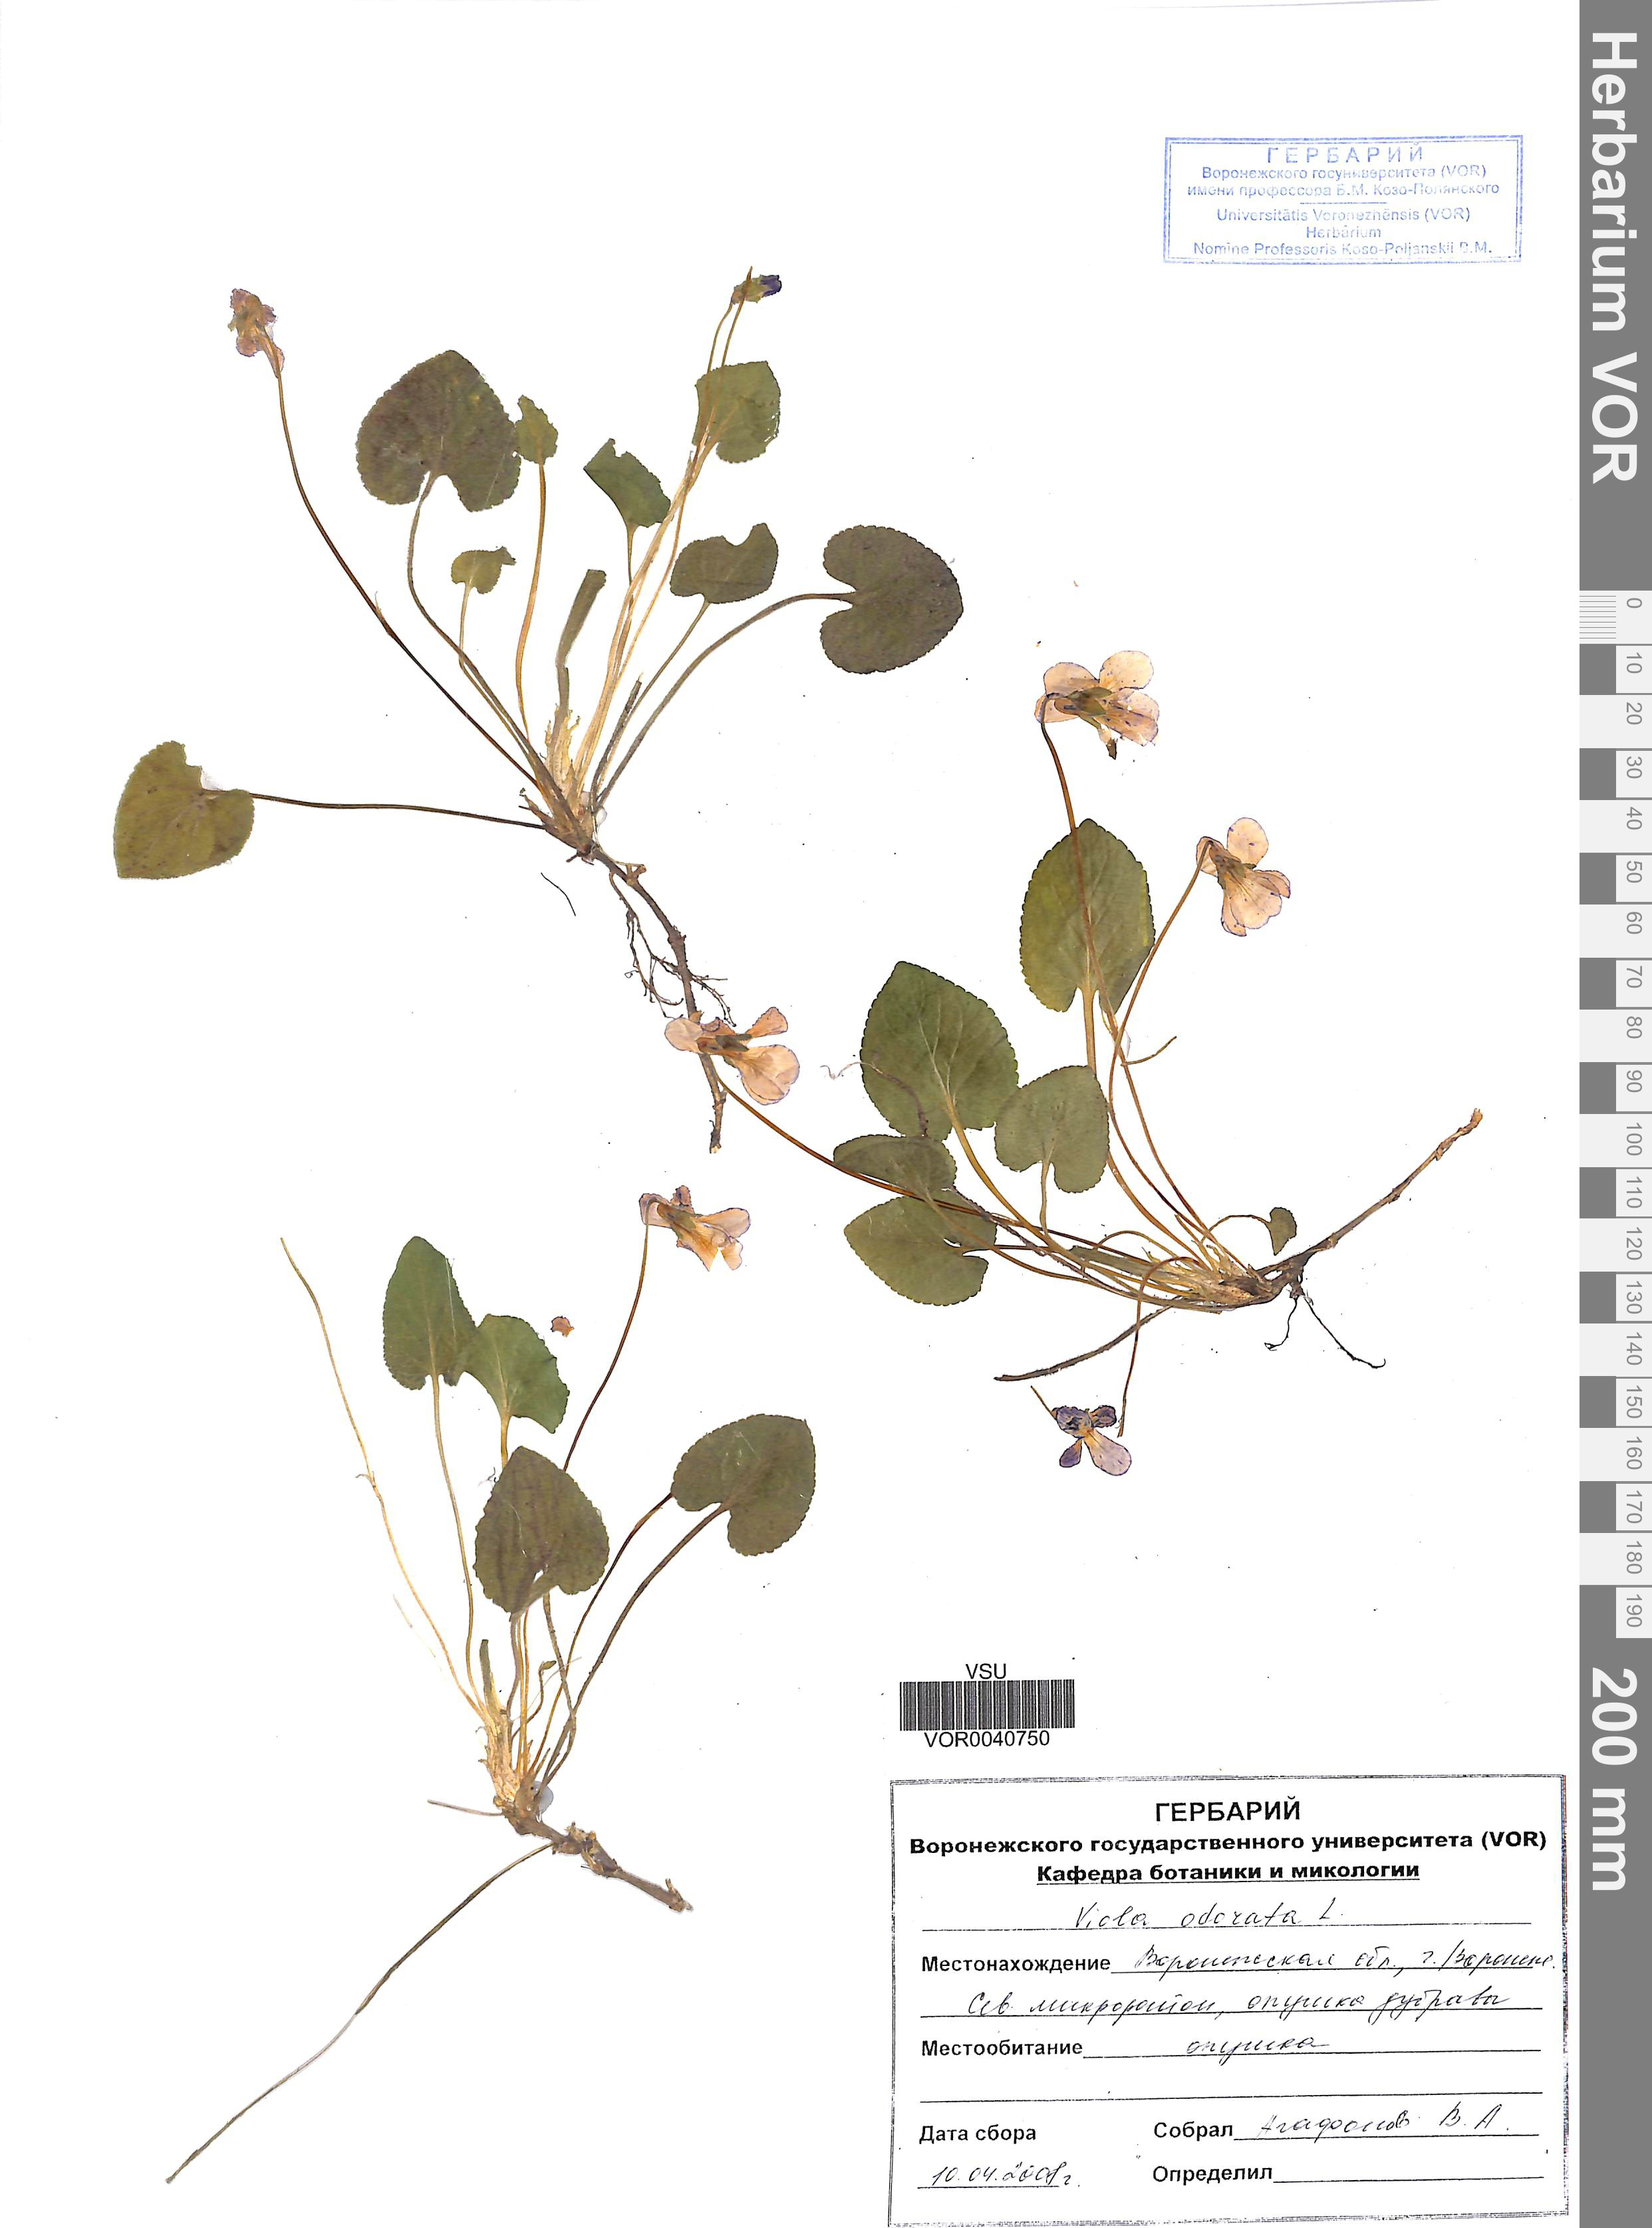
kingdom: Plantae
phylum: Tracheophyta
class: Magnoliopsida
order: Malpighiales
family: Violaceae
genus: Viola
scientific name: Viola odorata
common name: Sweet violet
